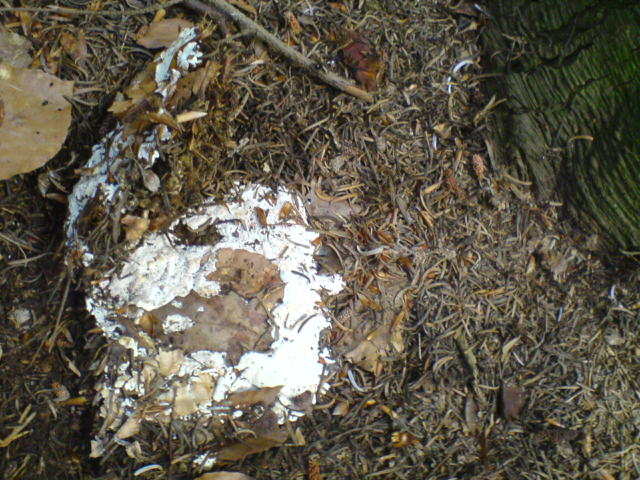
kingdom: Fungi
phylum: Basidiomycota
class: Agaricomycetes
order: Russulales
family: Bondarzewiaceae
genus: Heterobasidion
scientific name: Heterobasidion annosum
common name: almindelig rodfordærver
